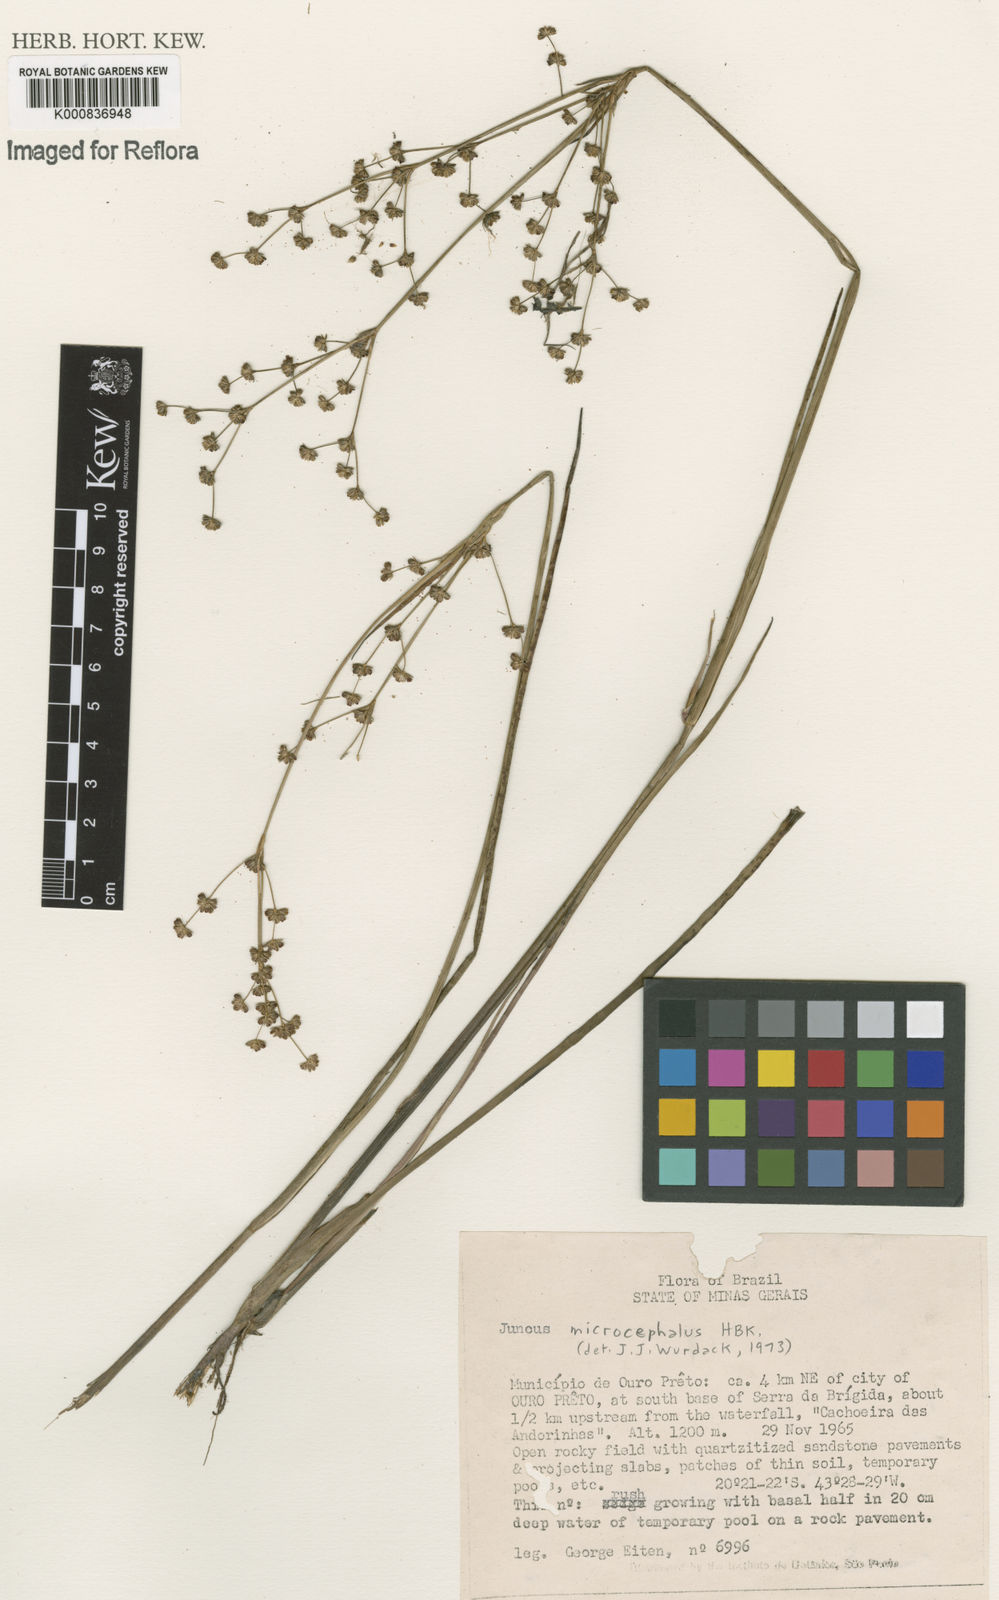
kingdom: Plantae
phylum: Tracheophyta
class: Liliopsida
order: Poales
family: Juncaceae
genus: Juncus
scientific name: Juncus microcephalus
